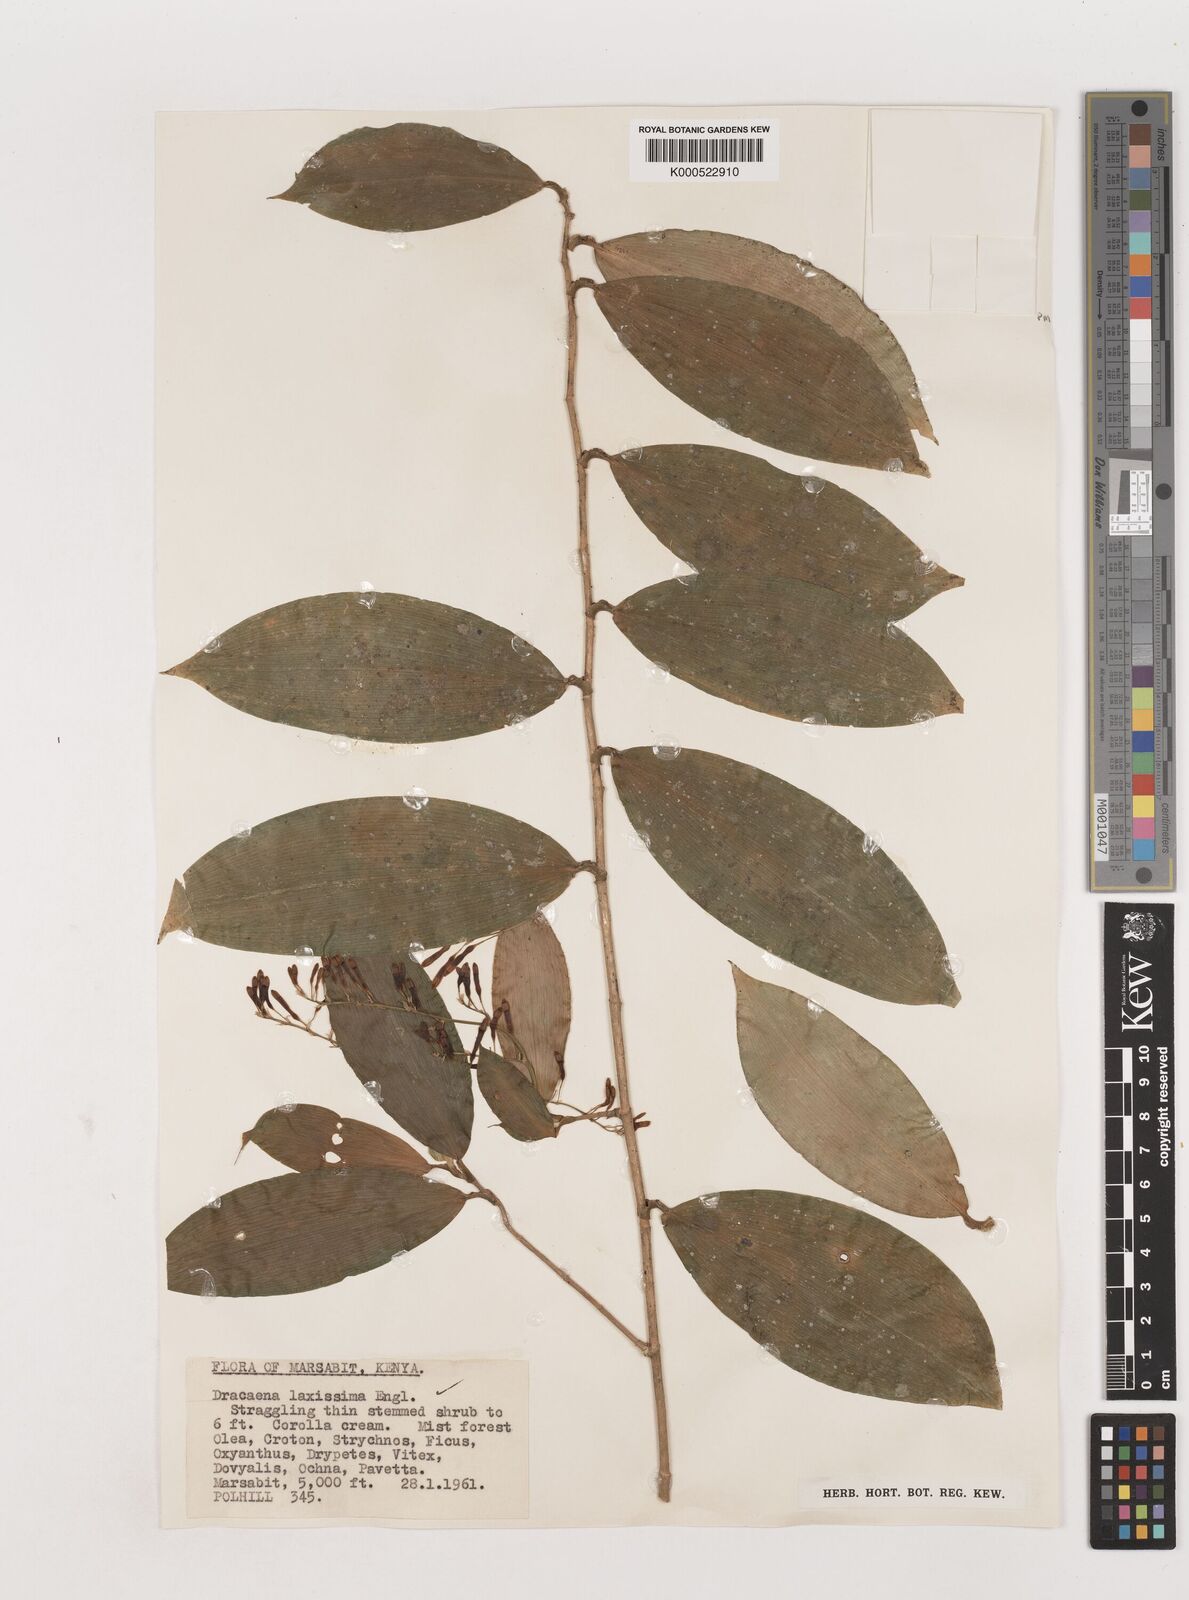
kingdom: Plantae
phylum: Tracheophyta
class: Liliopsida
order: Asparagales
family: Asparagaceae
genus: Dracaena
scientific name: Dracaena laxissima
